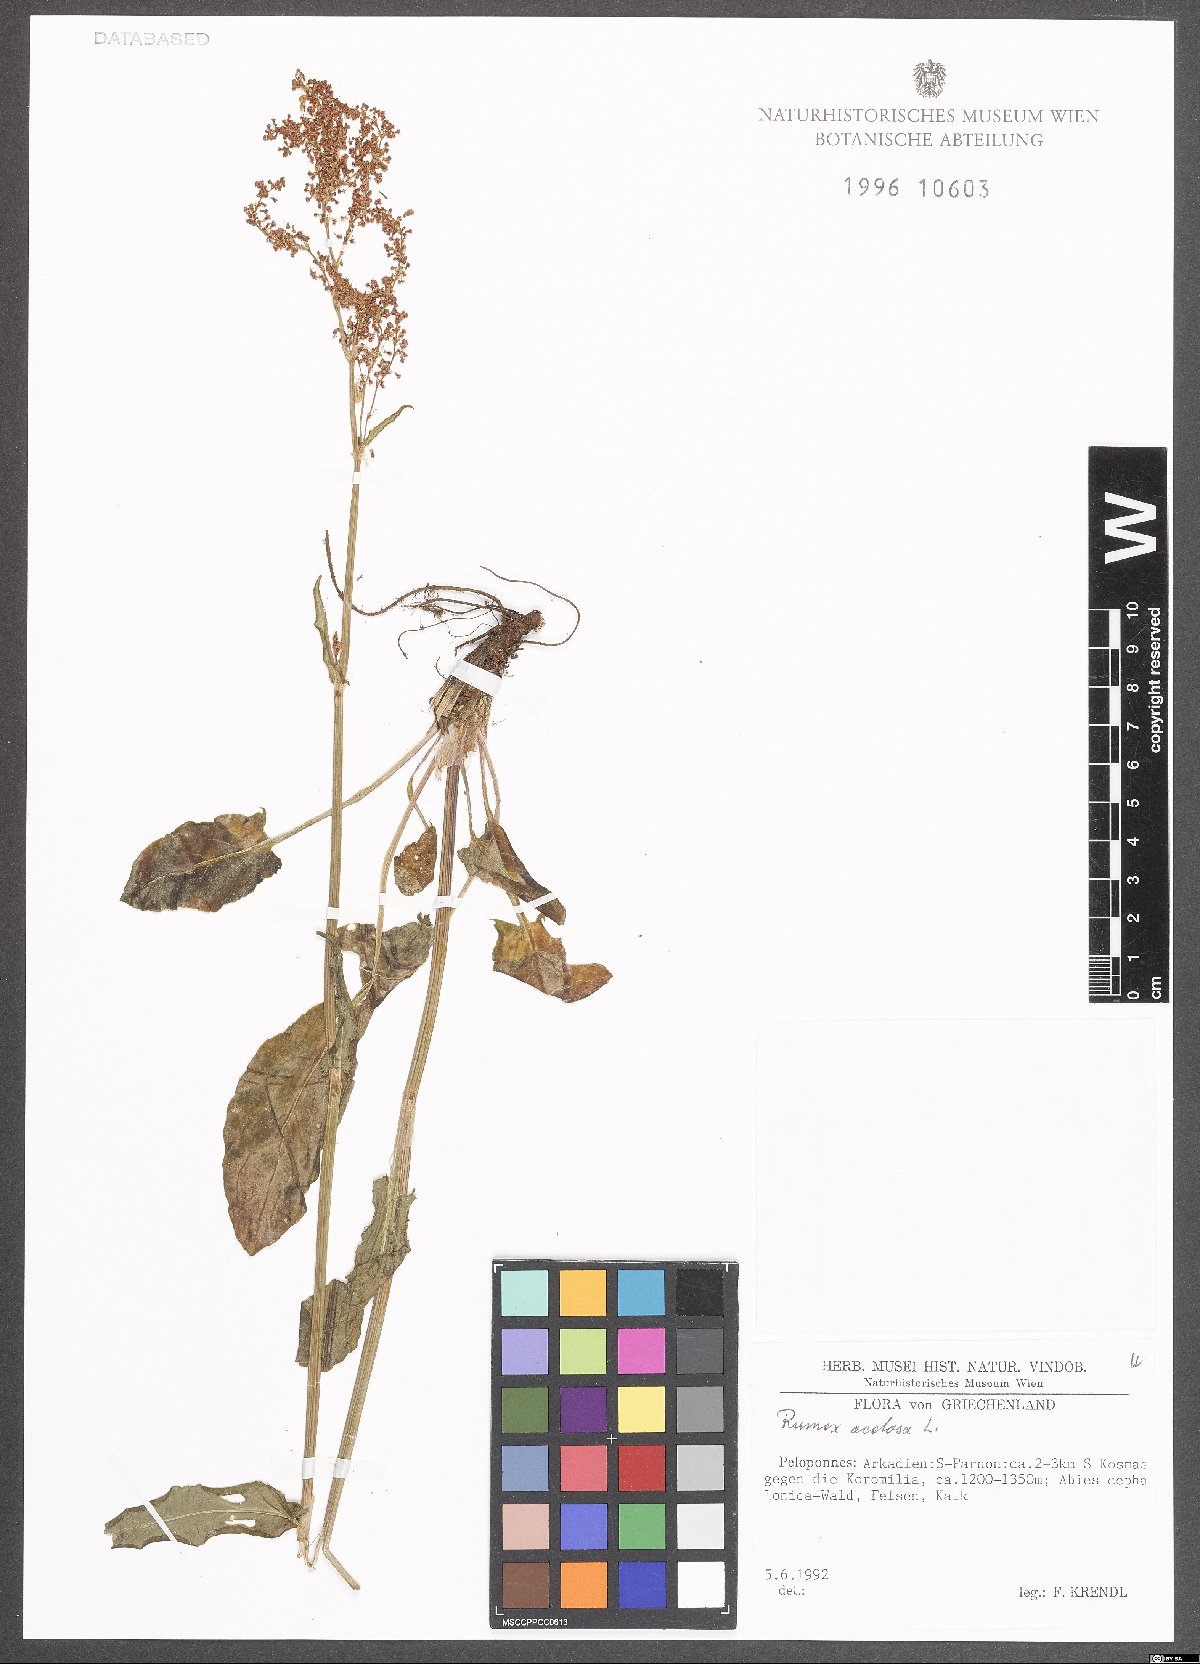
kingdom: Plantae
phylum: Tracheophyta
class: Magnoliopsida
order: Caryophyllales
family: Polygonaceae
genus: Rumex
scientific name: Rumex acetosa
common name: Garden sorrel
